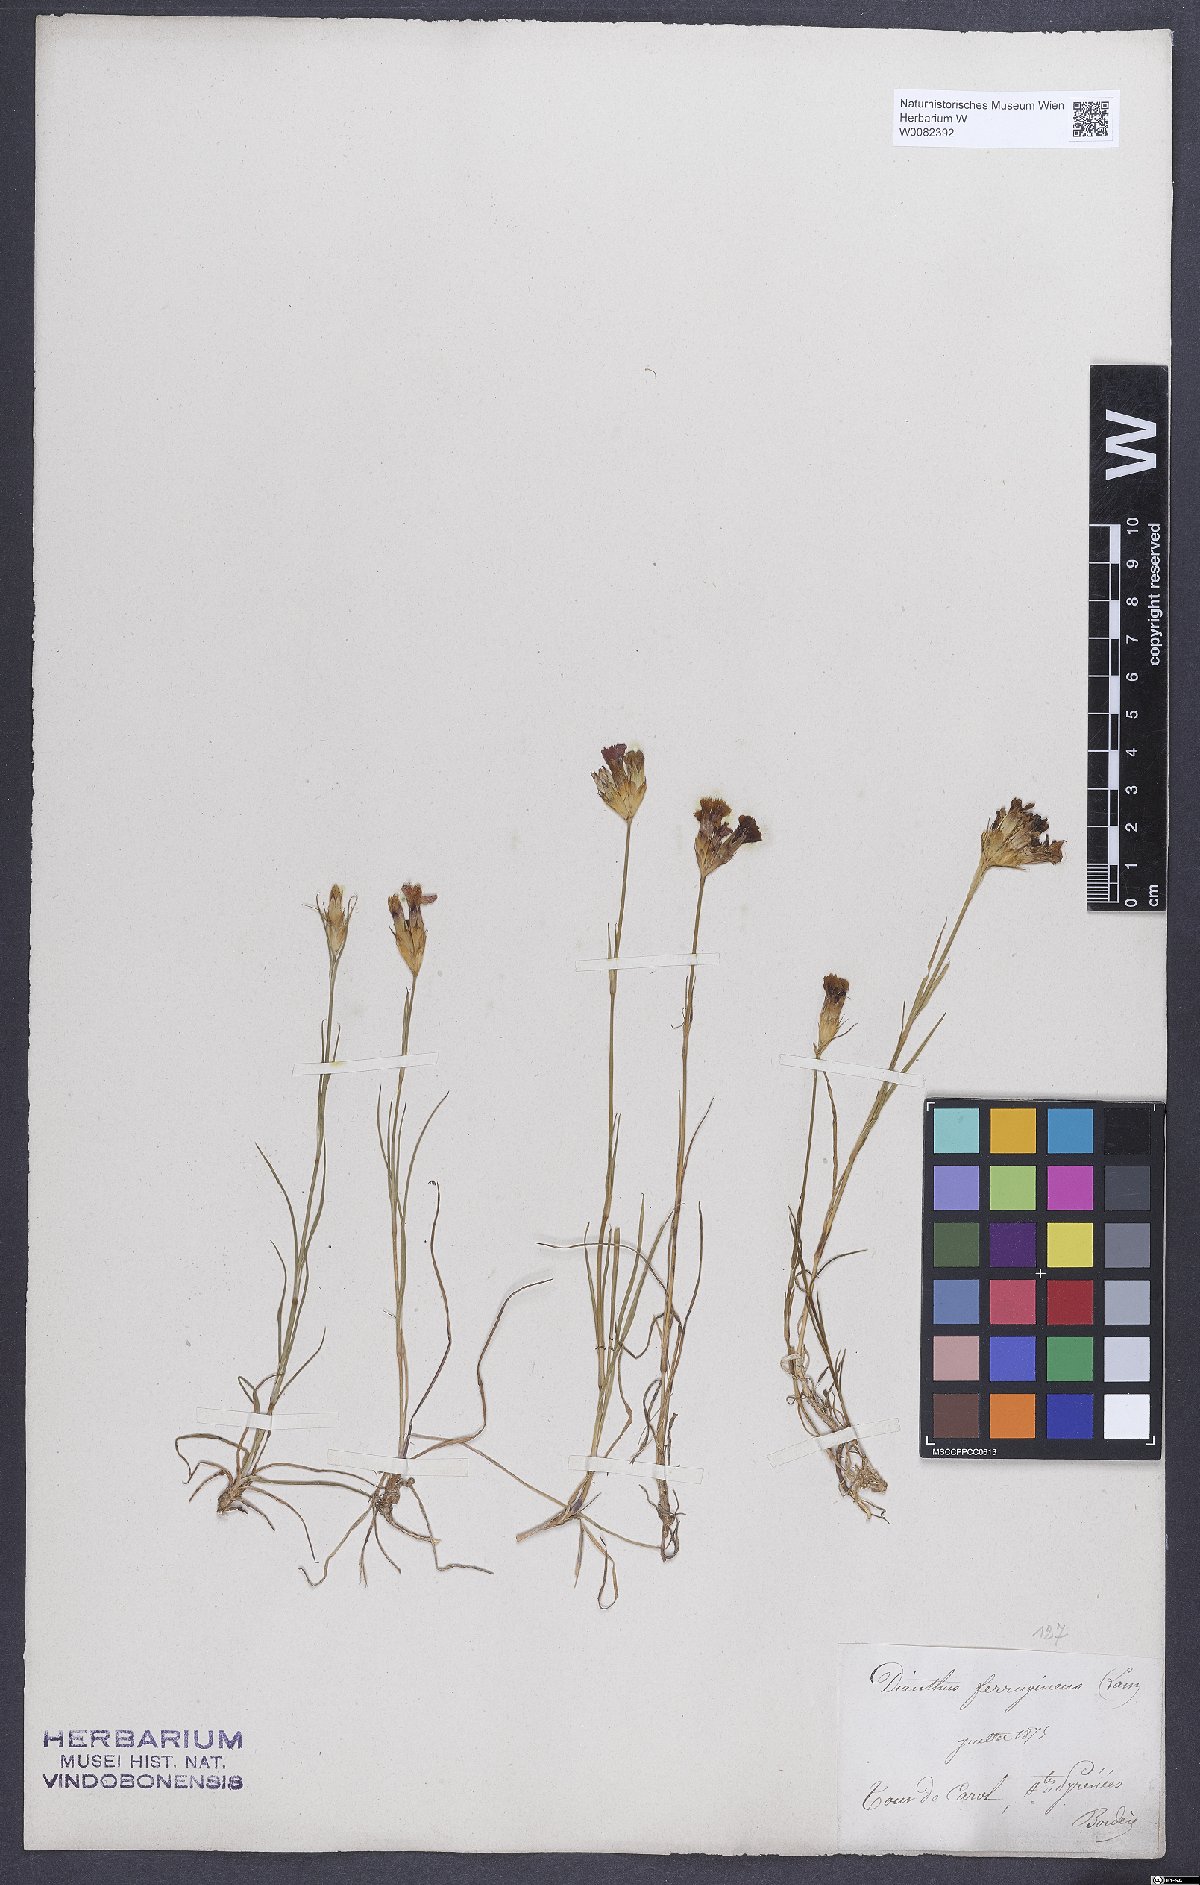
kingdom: Plantae
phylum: Tracheophyta
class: Magnoliopsida
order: Caryophyllales
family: Caryophyllaceae
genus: Dianthus
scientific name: Dianthus carthusianorum
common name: Carthusian pink
